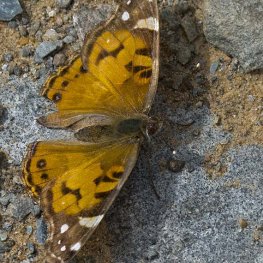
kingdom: Animalia
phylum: Arthropoda
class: Insecta
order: Lepidoptera
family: Nymphalidae
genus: Vanessa
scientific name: Vanessa virginiensis
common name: American Lady
